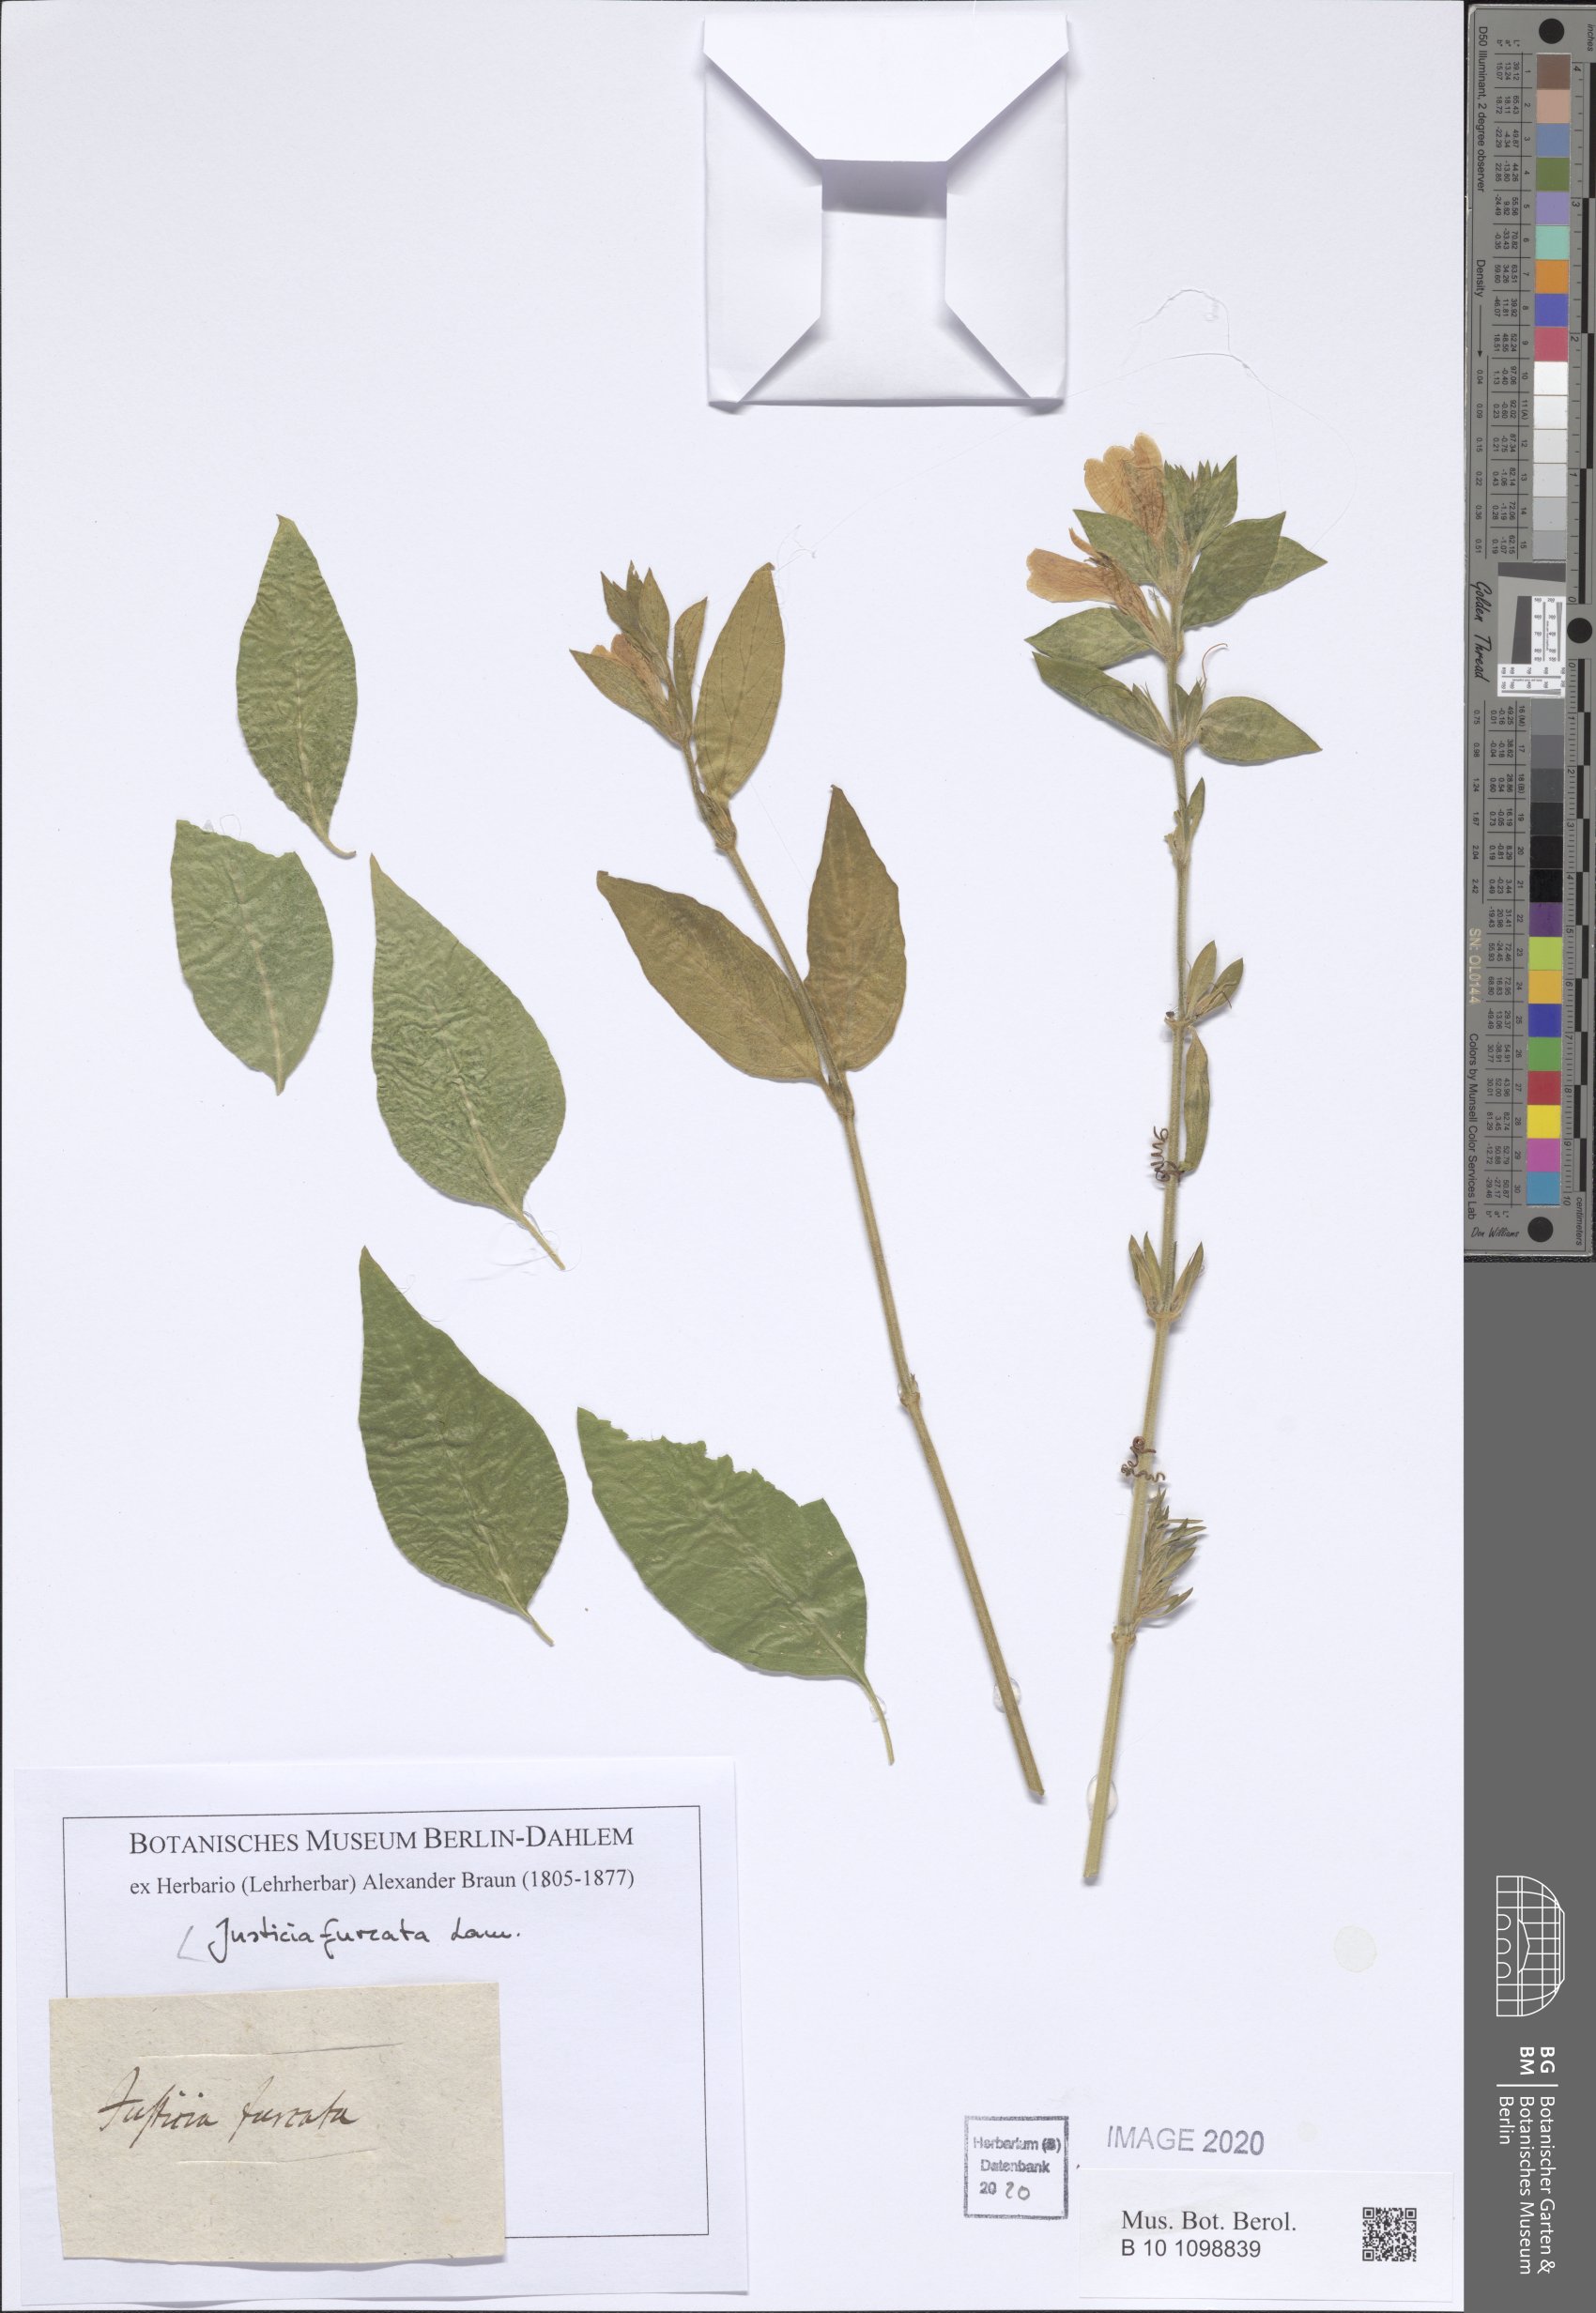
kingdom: Plantae
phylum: Tracheophyta
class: Magnoliopsida
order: Lamiales
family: Acanthaceae
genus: Ruellia
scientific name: Ruellia paniculata
